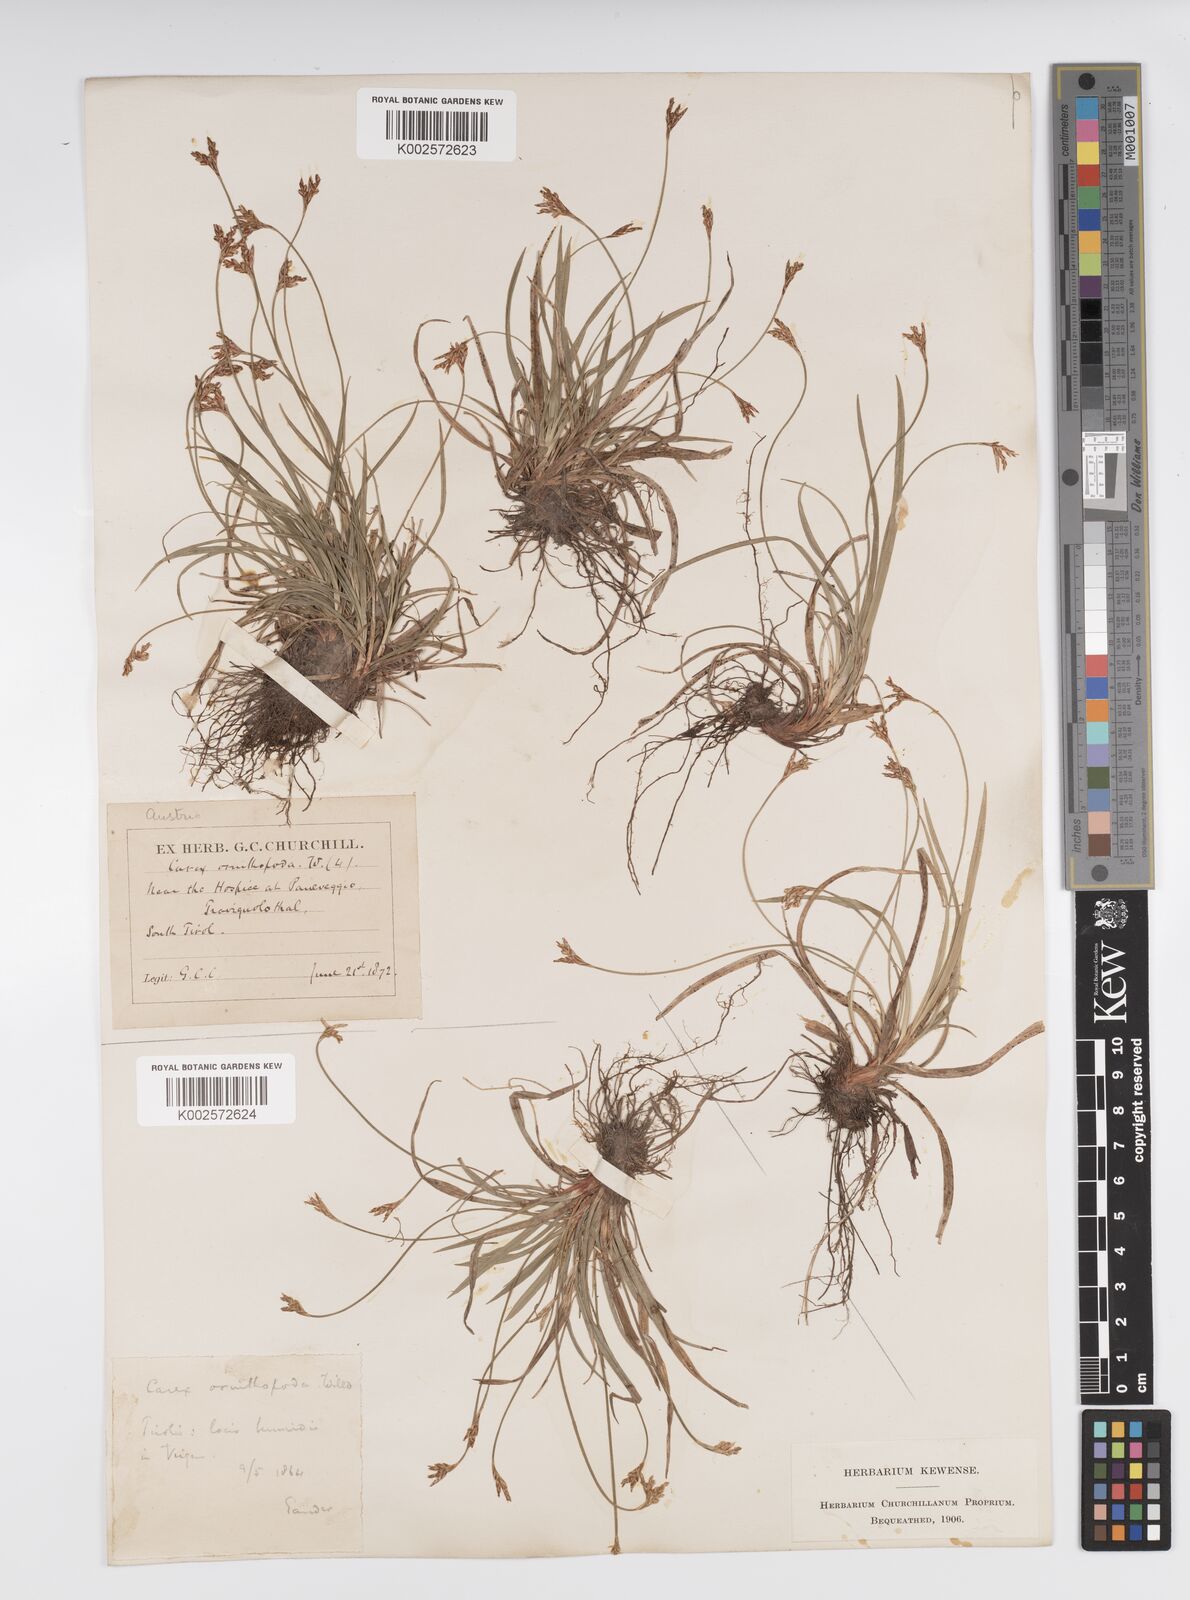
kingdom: Plantae
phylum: Tracheophyta
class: Liliopsida
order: Poales
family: Cyperaceae
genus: Carex
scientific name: Carex ornithopoda
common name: Bird's-foot sedge
